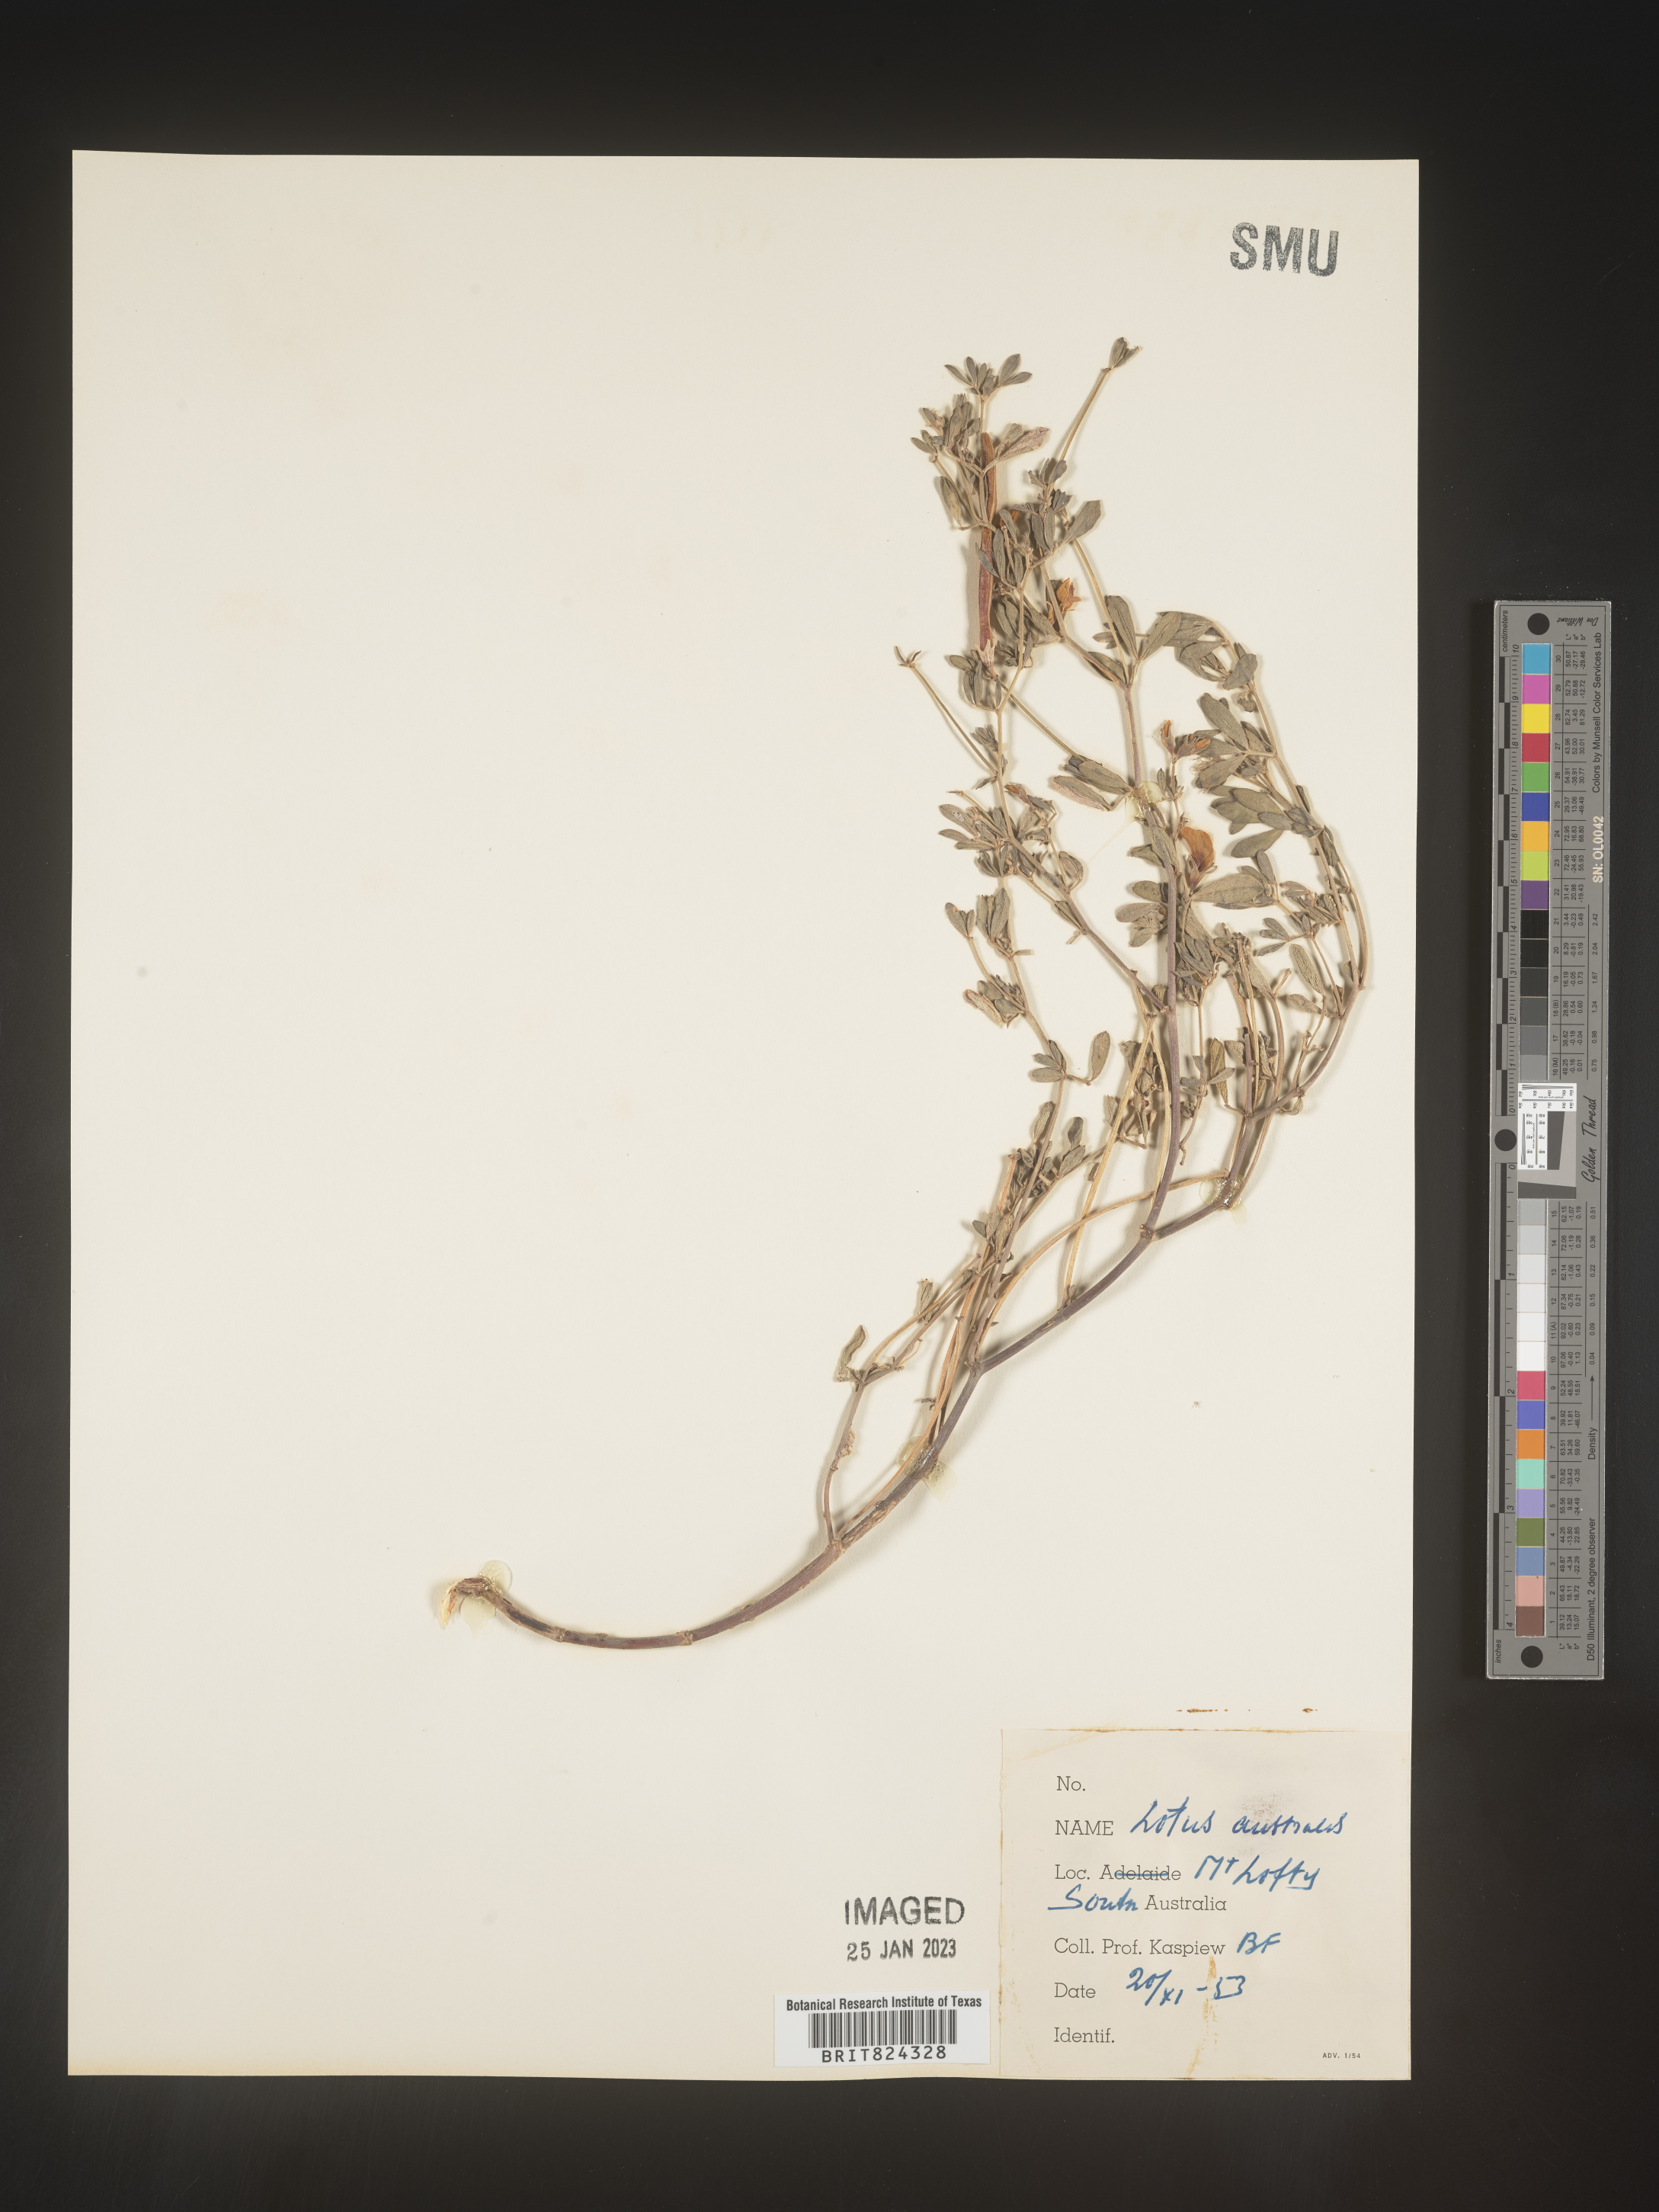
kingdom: Plantae
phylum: Tracheophyta
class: Magnoliopsida
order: Fabales
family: Fabaceae
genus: Lotus
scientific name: Lotus
